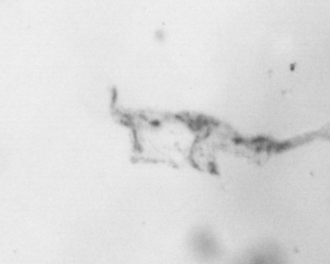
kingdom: Animalia
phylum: Arthropoda
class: Maxillopoda
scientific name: Maxillopoda
